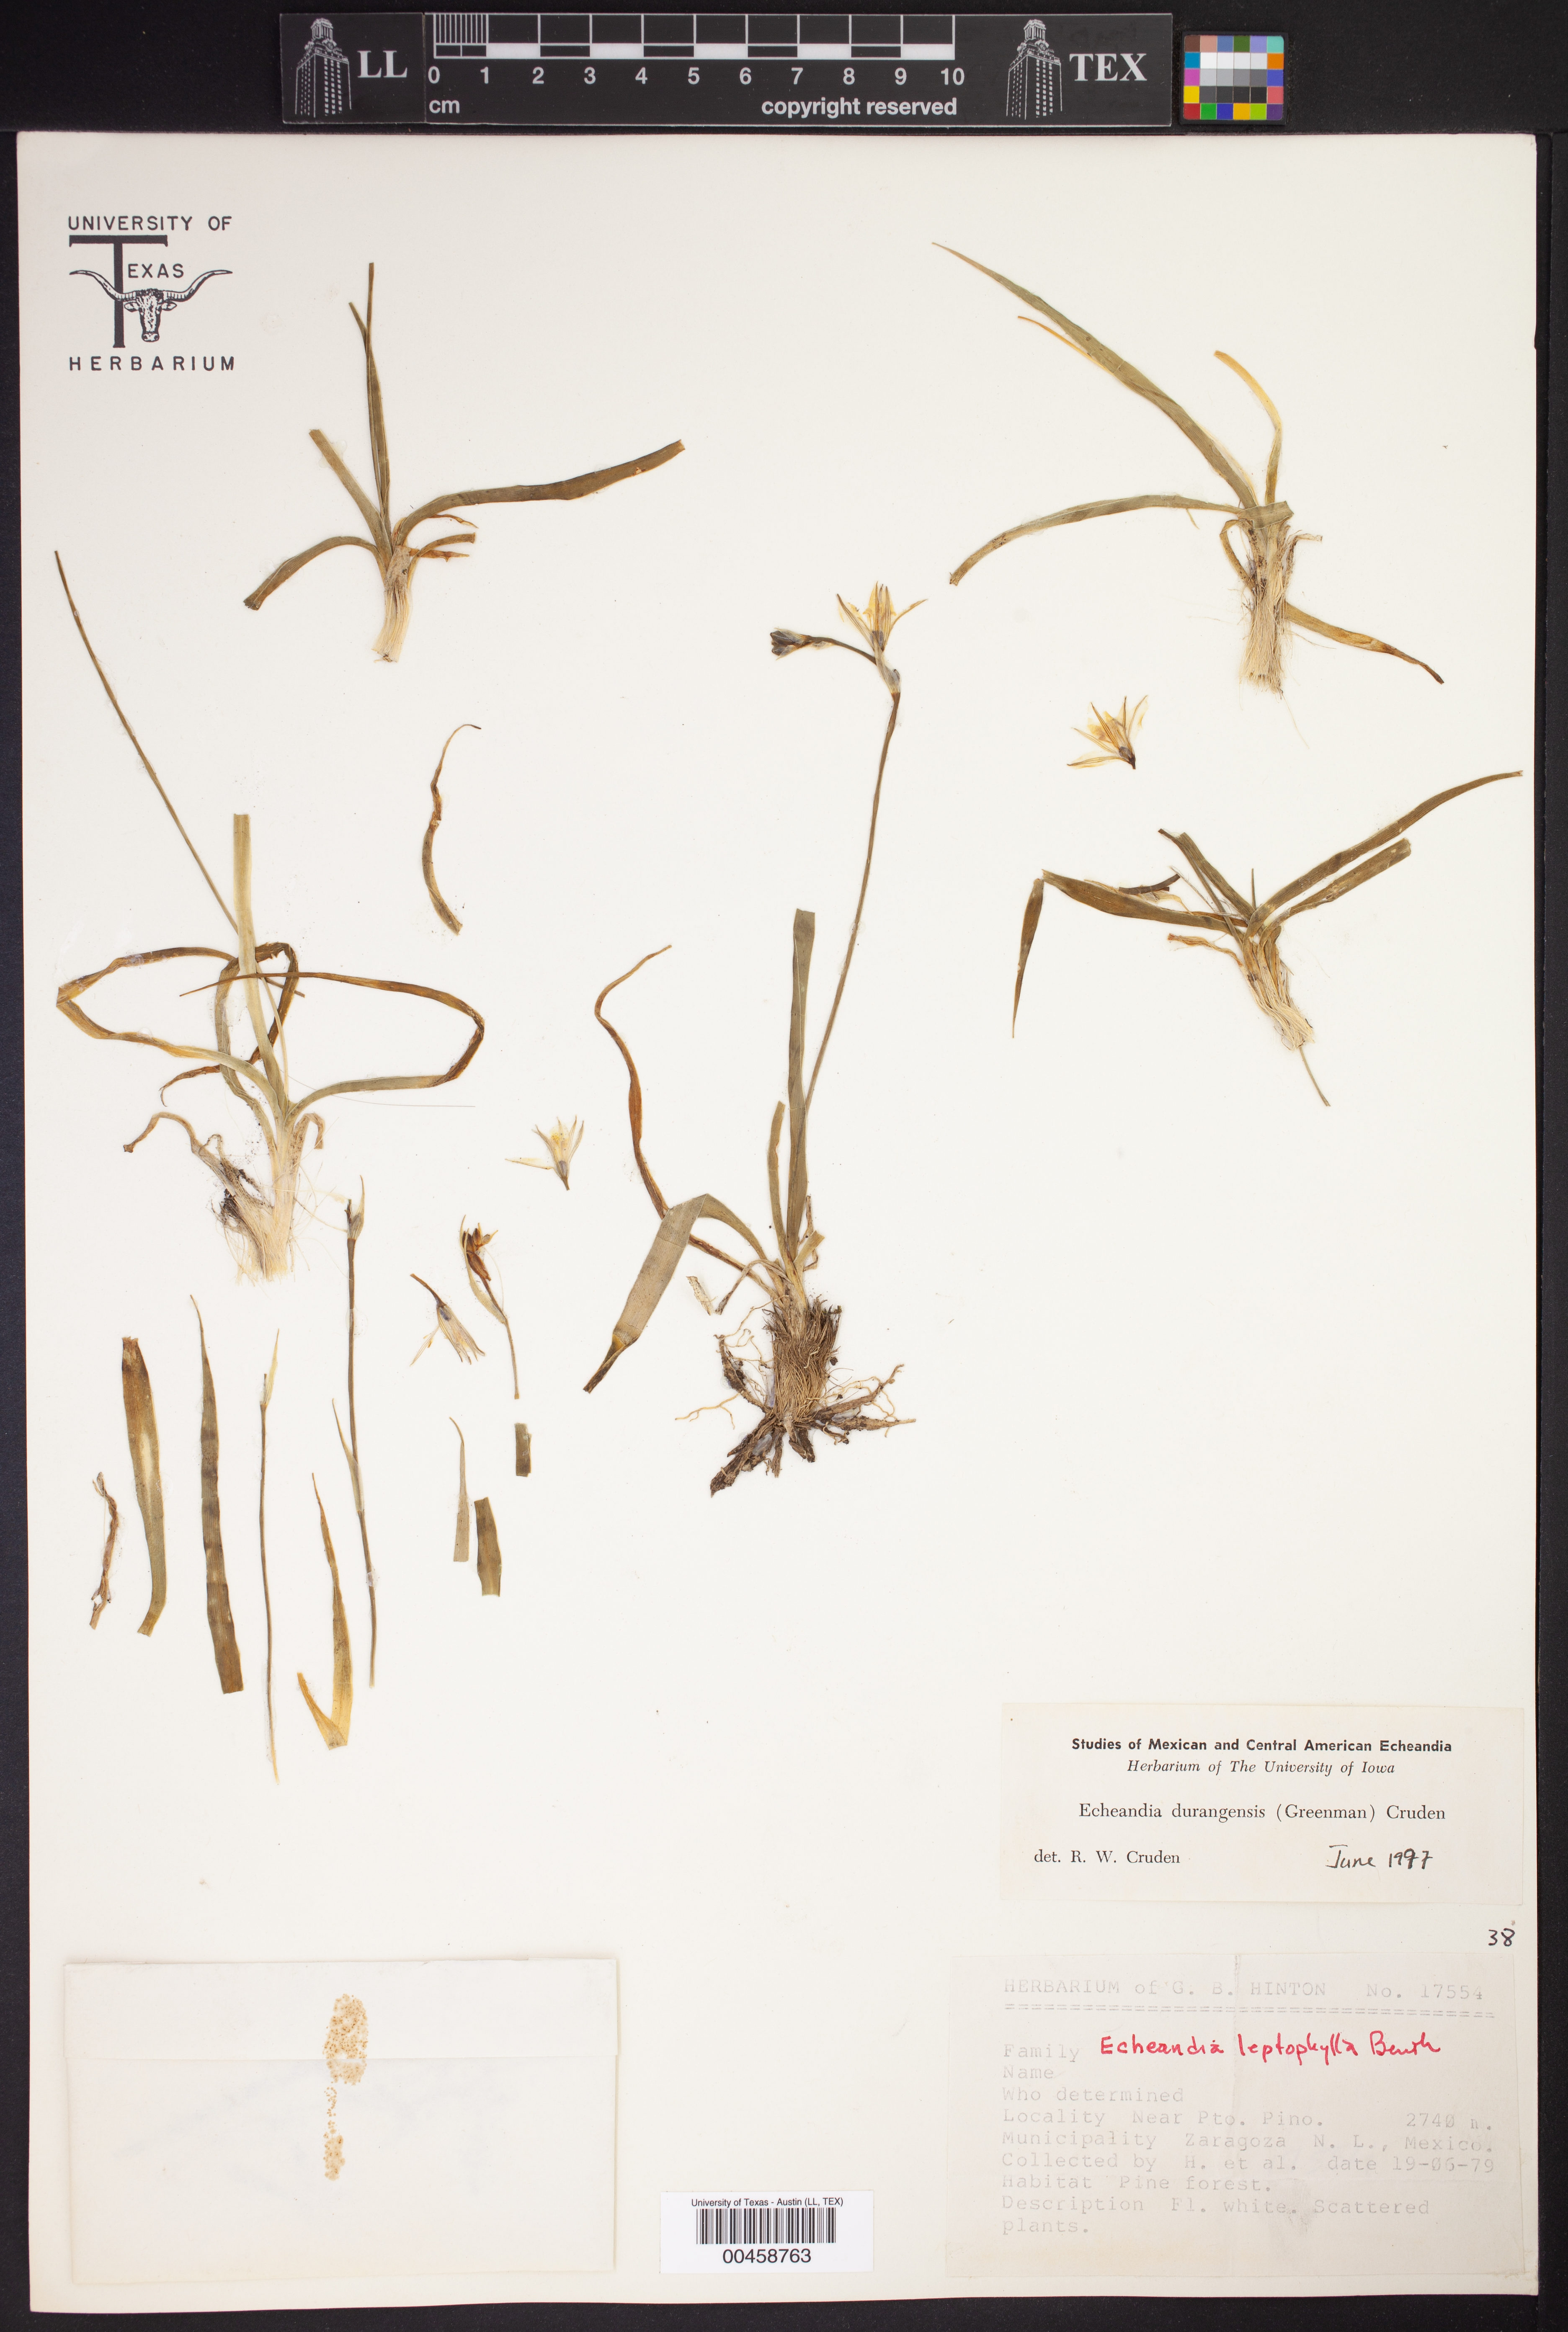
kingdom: Plantae
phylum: Tracheophyta
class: Liliopsida
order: Asparagales
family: Asparagaceae
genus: Echeandia
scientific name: Echeandia flavescens
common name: Amberlily
